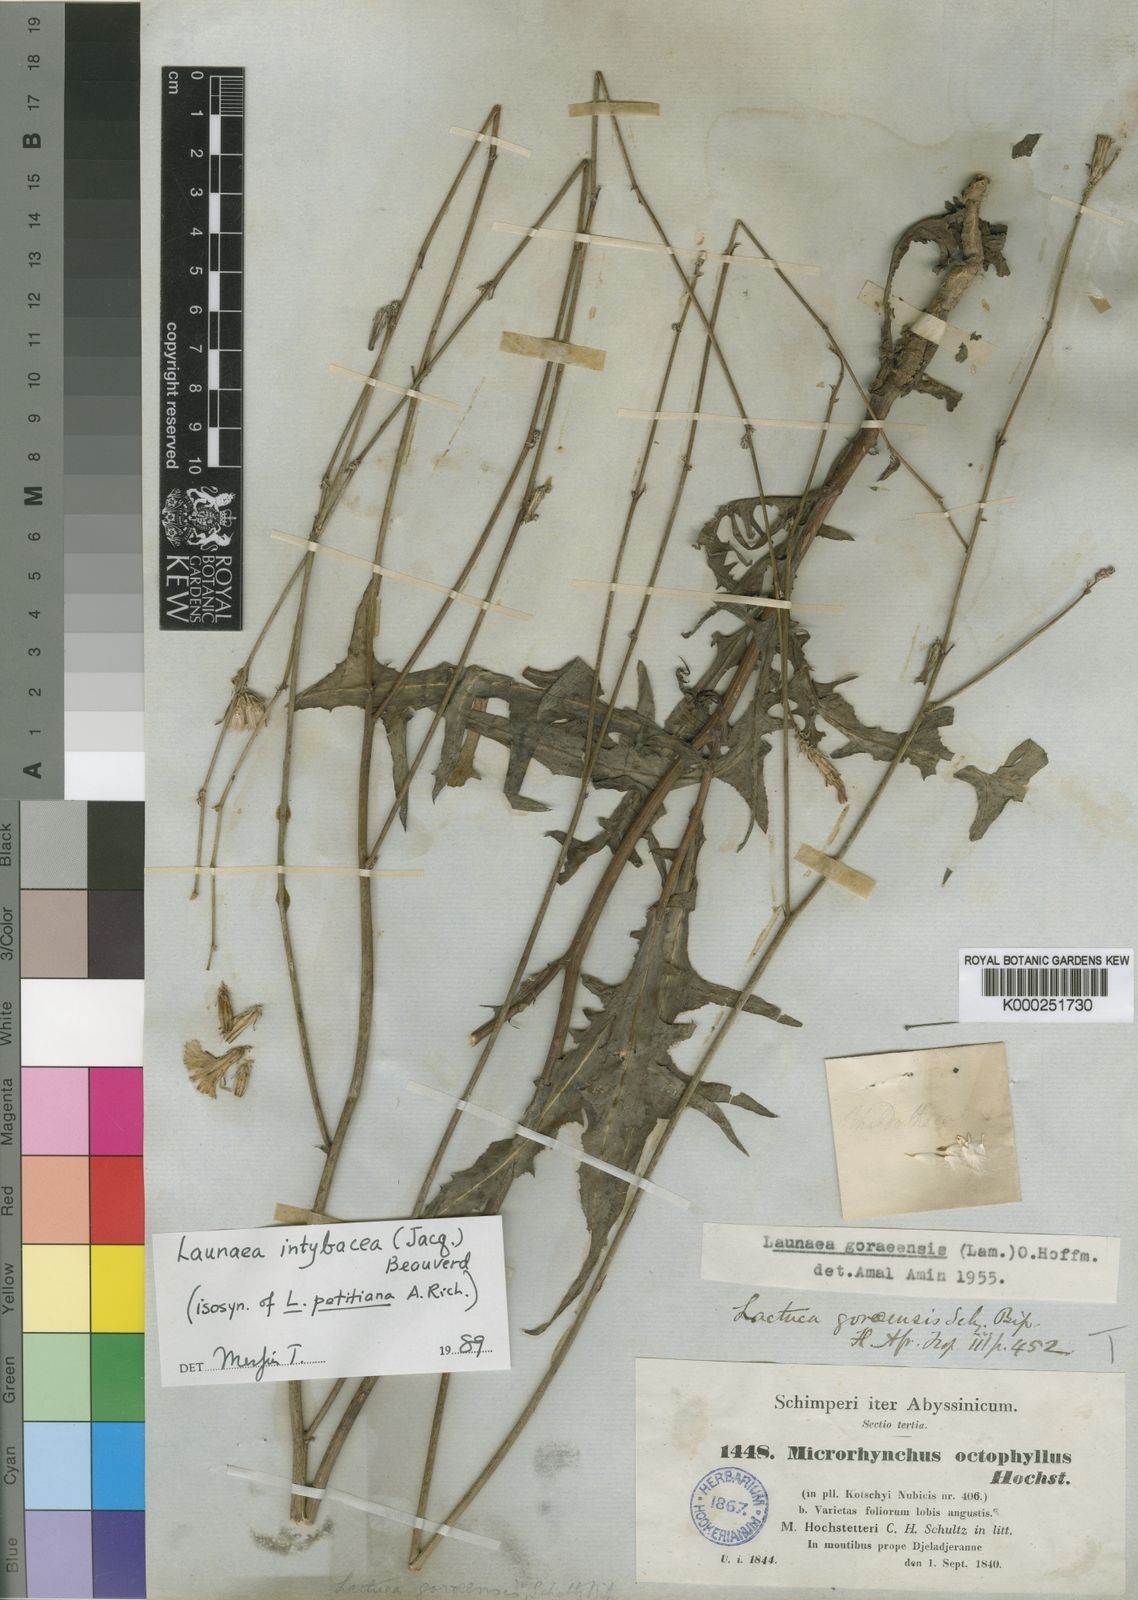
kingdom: Plantae
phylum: Tracheophyta
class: Magnoliopsida
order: Asterales
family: Asteraceae
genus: Launaea
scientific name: Launaea intybacea
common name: Achicoria azul
